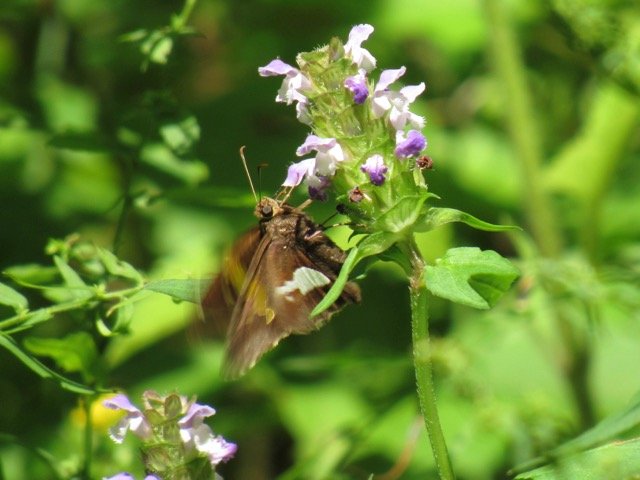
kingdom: Animalia
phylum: Arthropoda
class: Insecta
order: Lepidoptera
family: Hesperiidae
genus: Epargyreus
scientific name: Epargyreus clarus
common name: Silver-spotted Skipper
